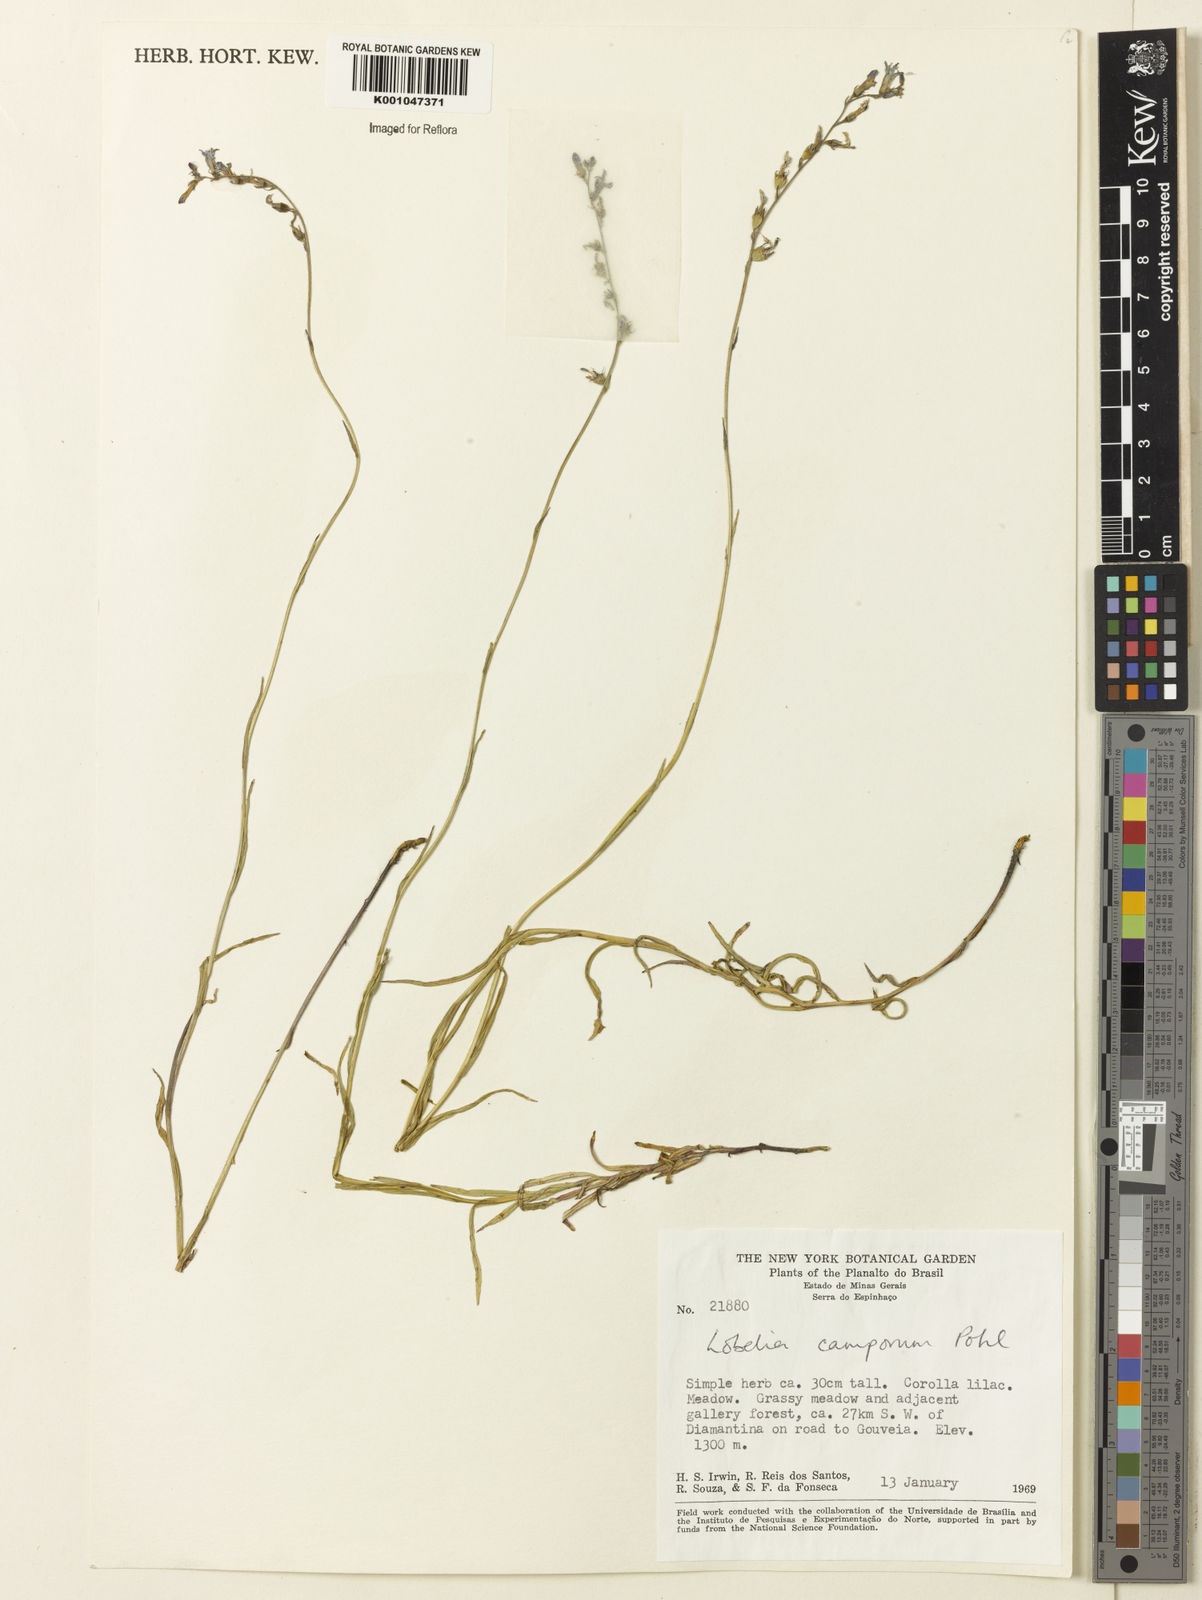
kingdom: Plantae
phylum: Tracheophyta
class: Magnoliopsida
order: Asterales
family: Campanulaceae
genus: Lobelia
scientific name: Lobelia camporum
